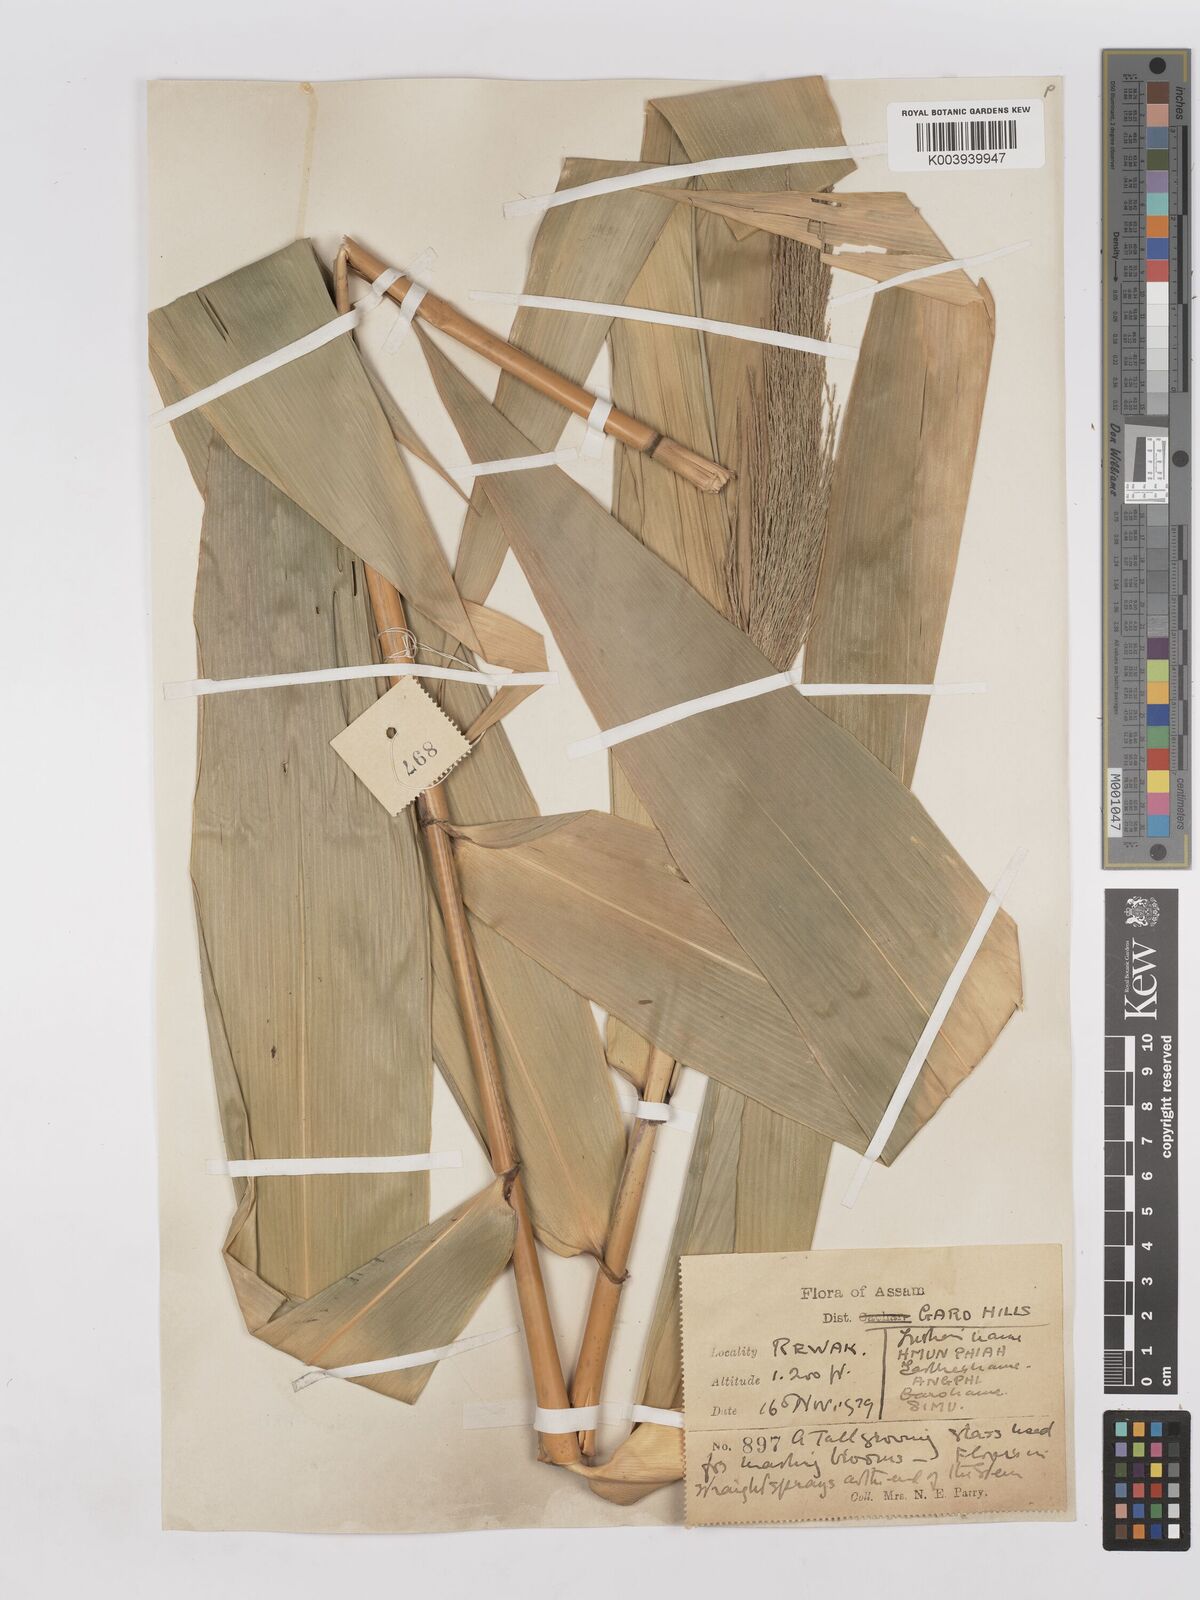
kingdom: Plantae
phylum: Tracheophyta
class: Liliopsida
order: Poales
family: Poaceae
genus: Thysanolaena
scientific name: Thysanolaena latifolia
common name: Tiger grass
